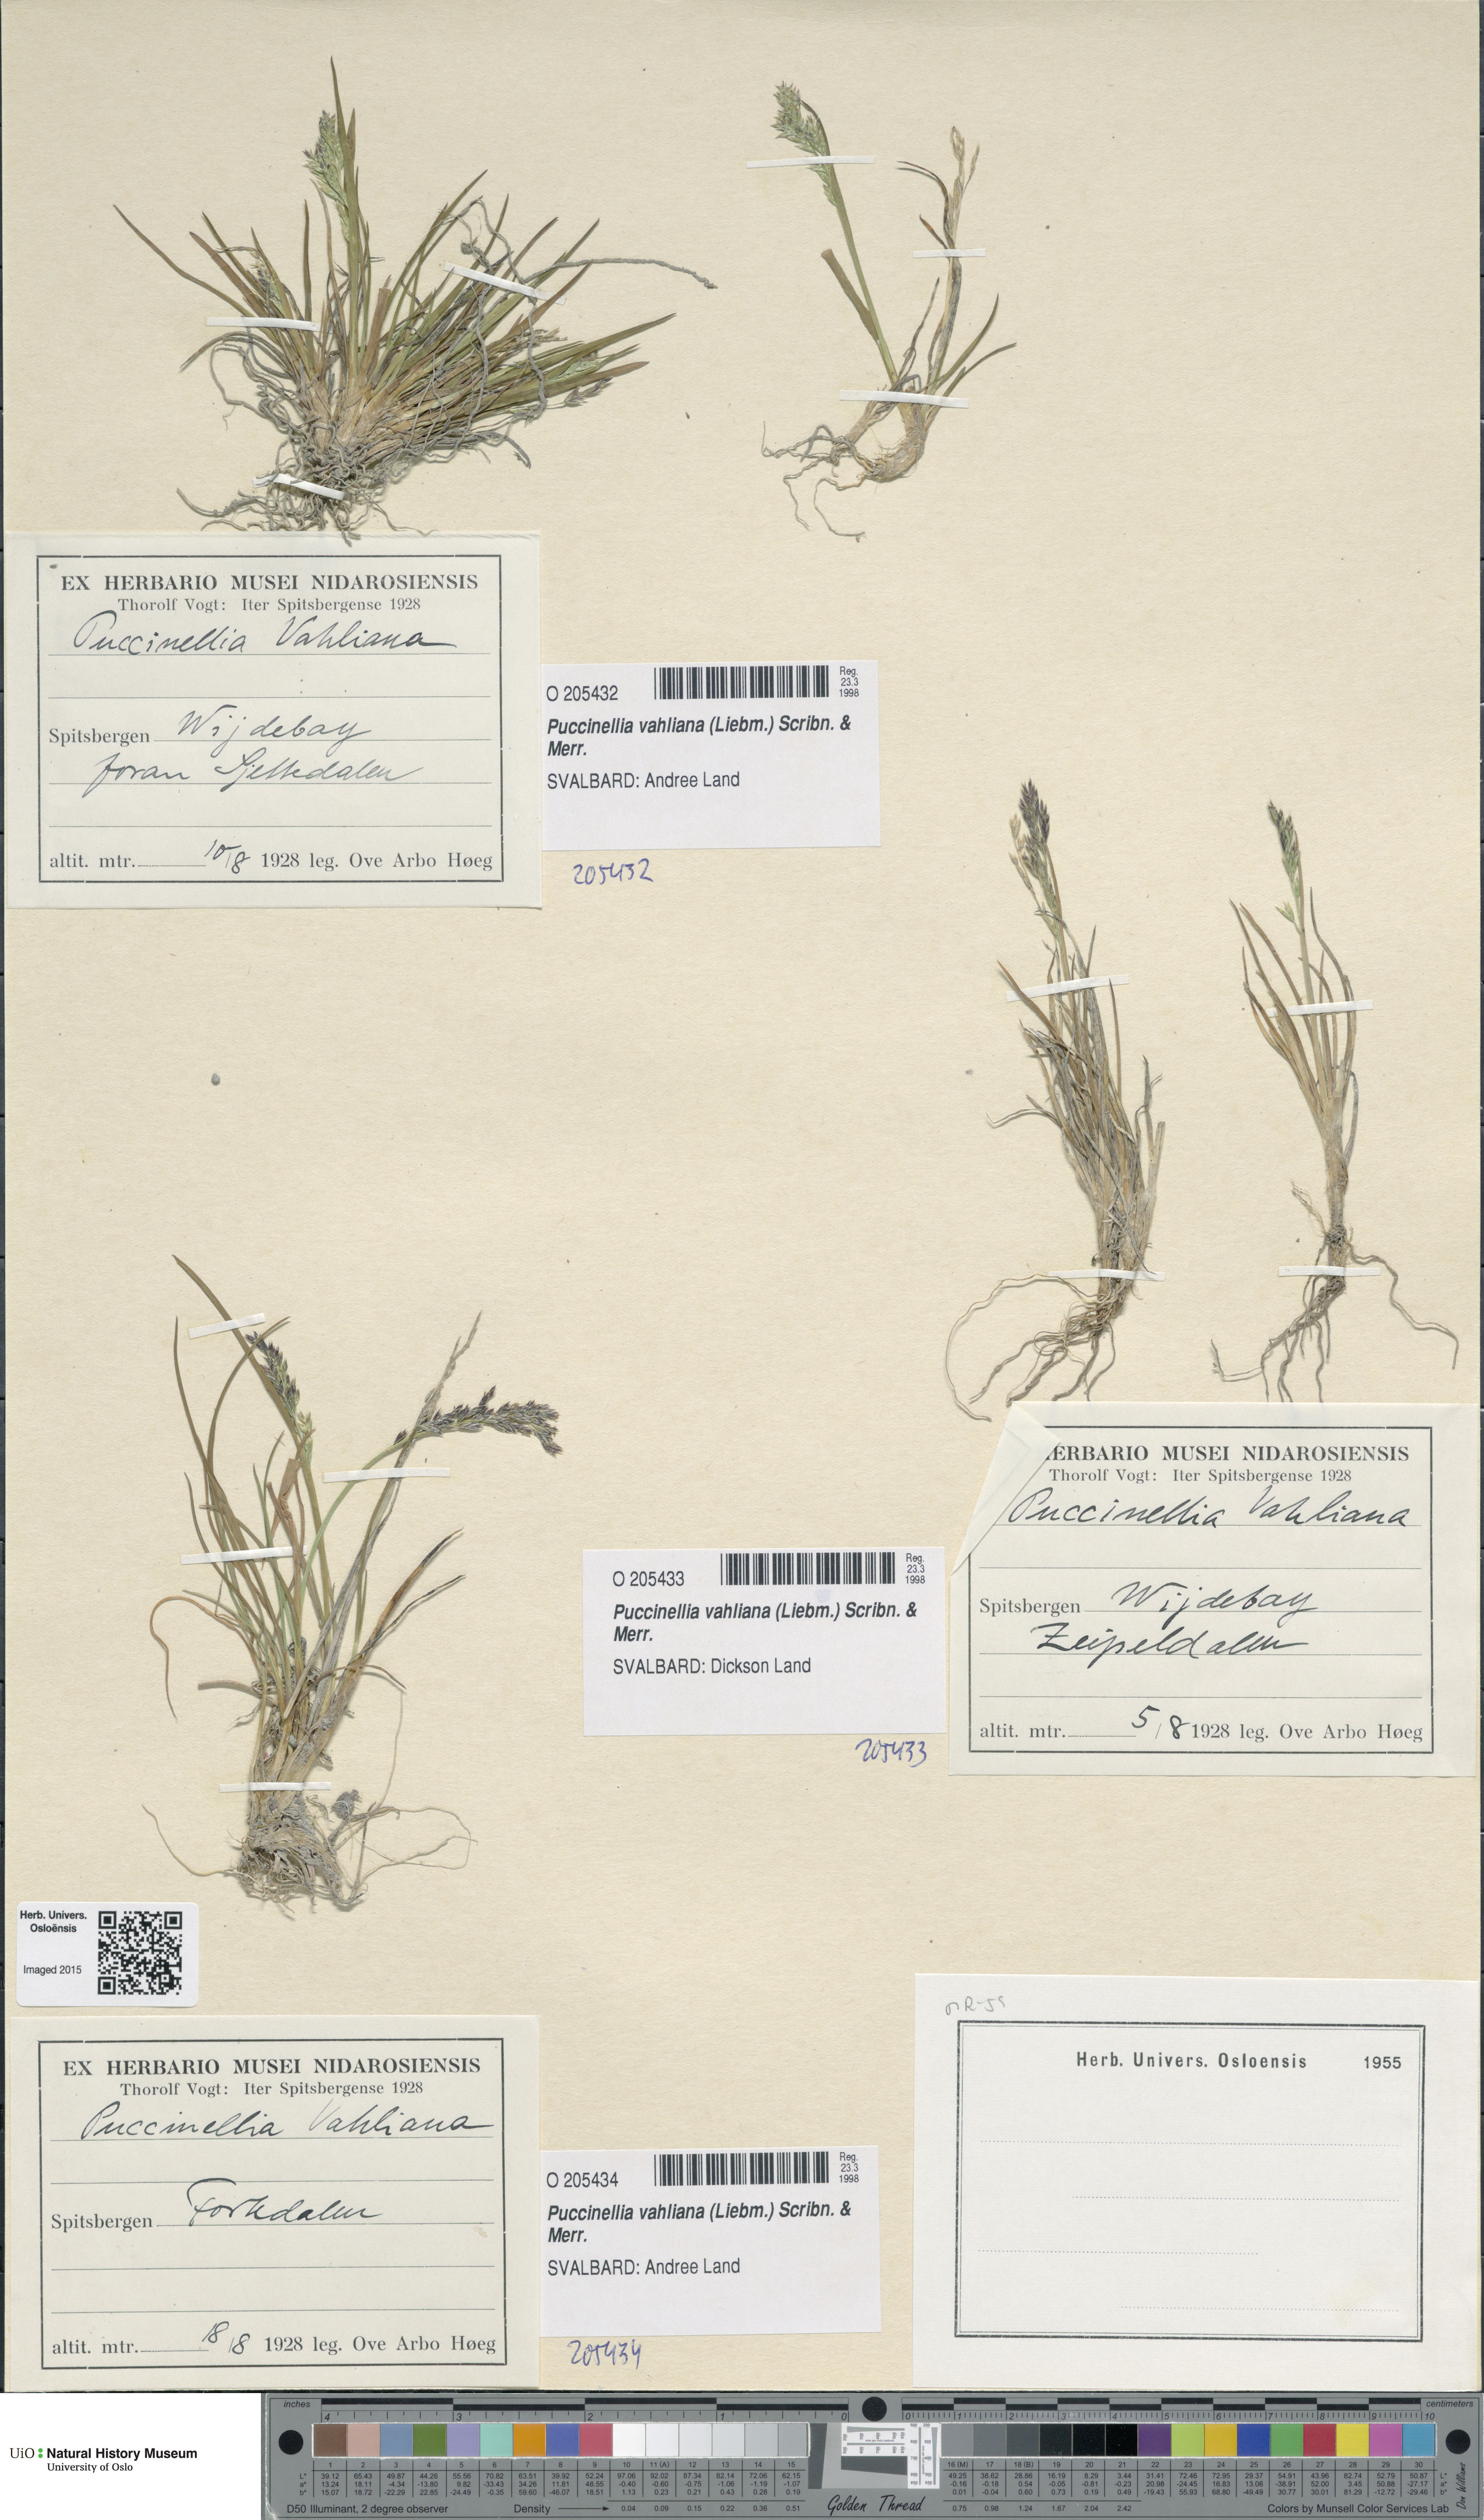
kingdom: Plantae
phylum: Tracheophyta
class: Liliopsida
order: Poales
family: Poaceae
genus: Puccinellia
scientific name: Puccinellia vahliana
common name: Vahl's alkaligrass
